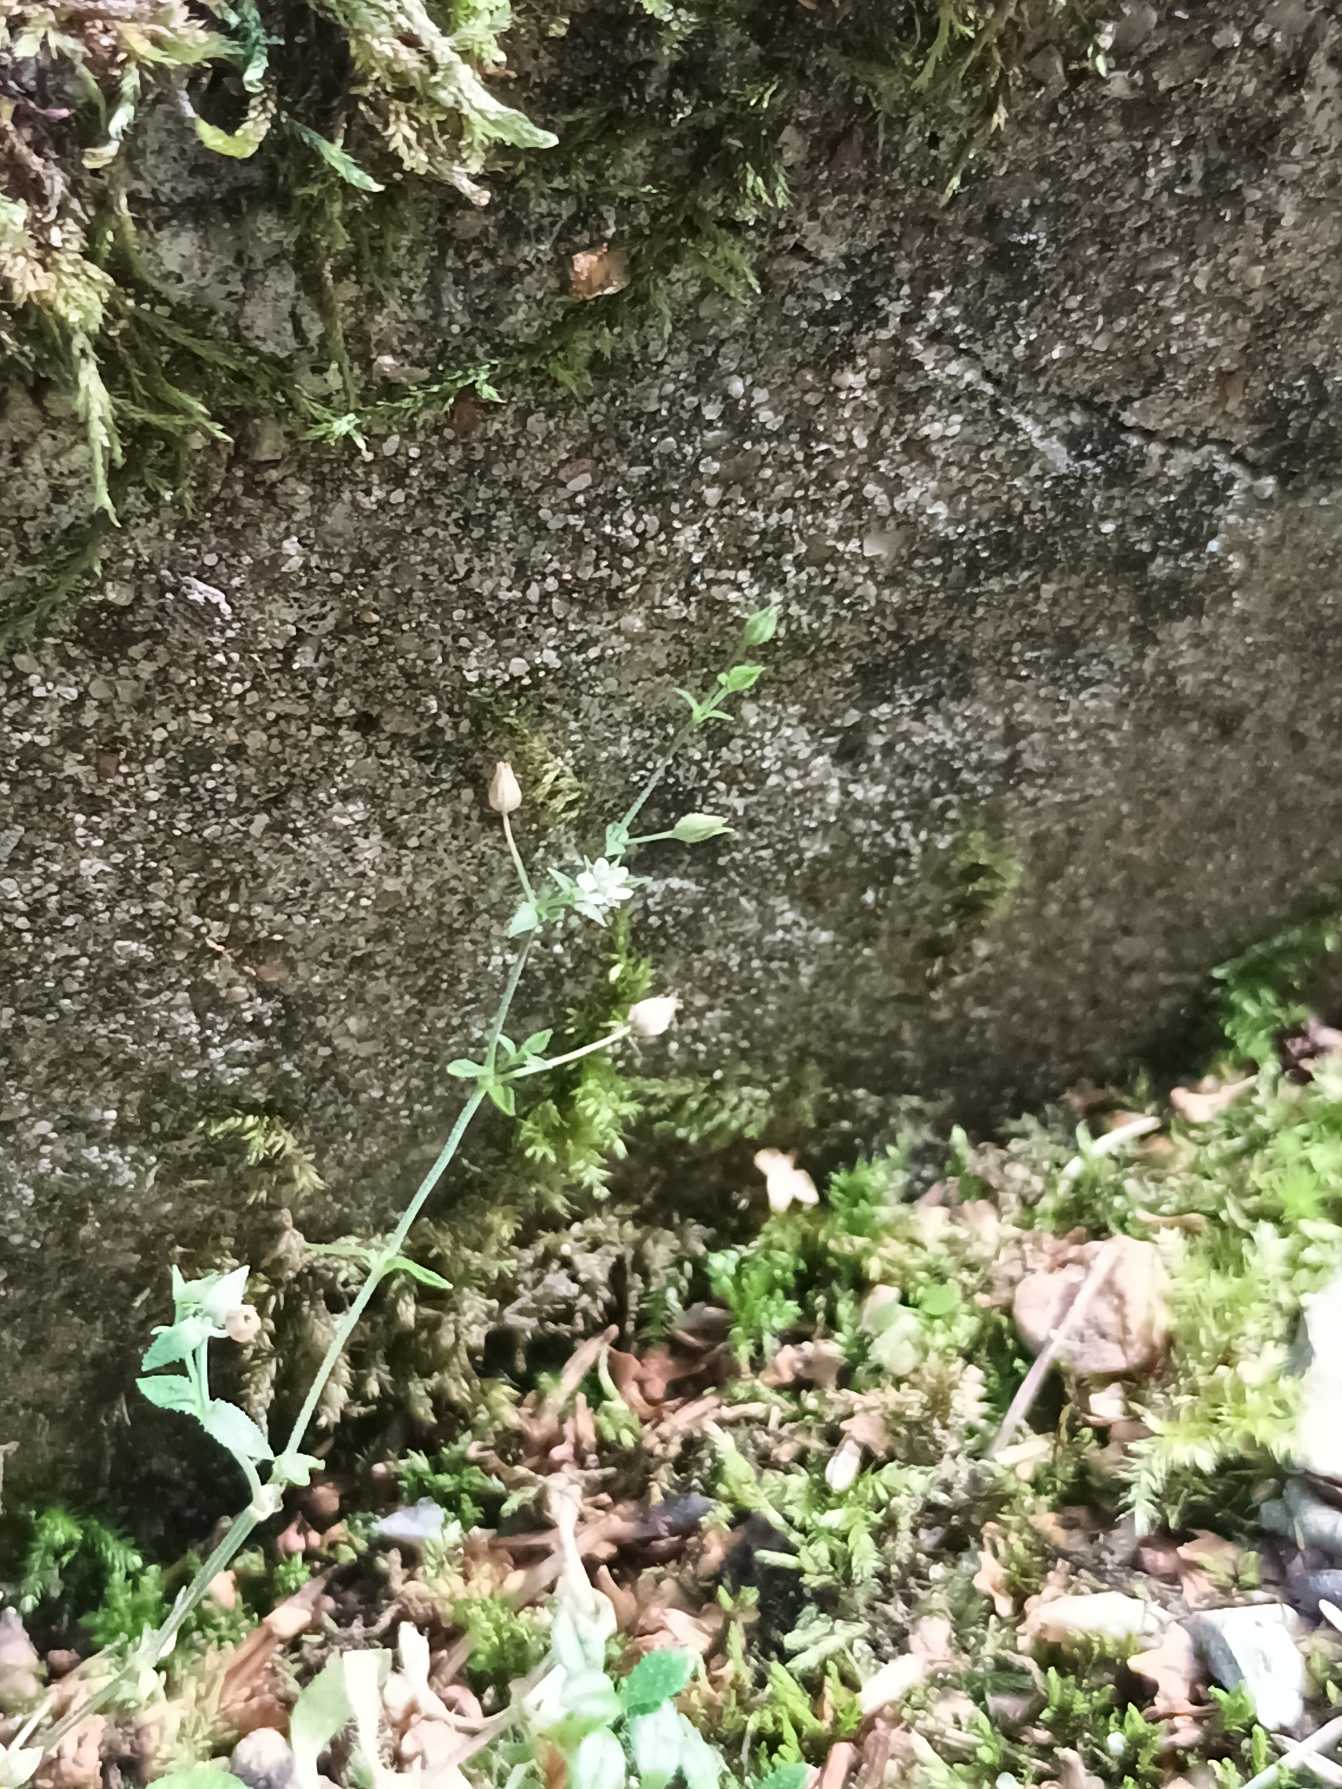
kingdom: Plantae
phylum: Tracheophyta
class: Magnoliopsida
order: Caryophyllales
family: Caryophyllaceae
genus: Arenaria
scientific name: Arenaria serpyllifolia
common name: Almindelig markarve
